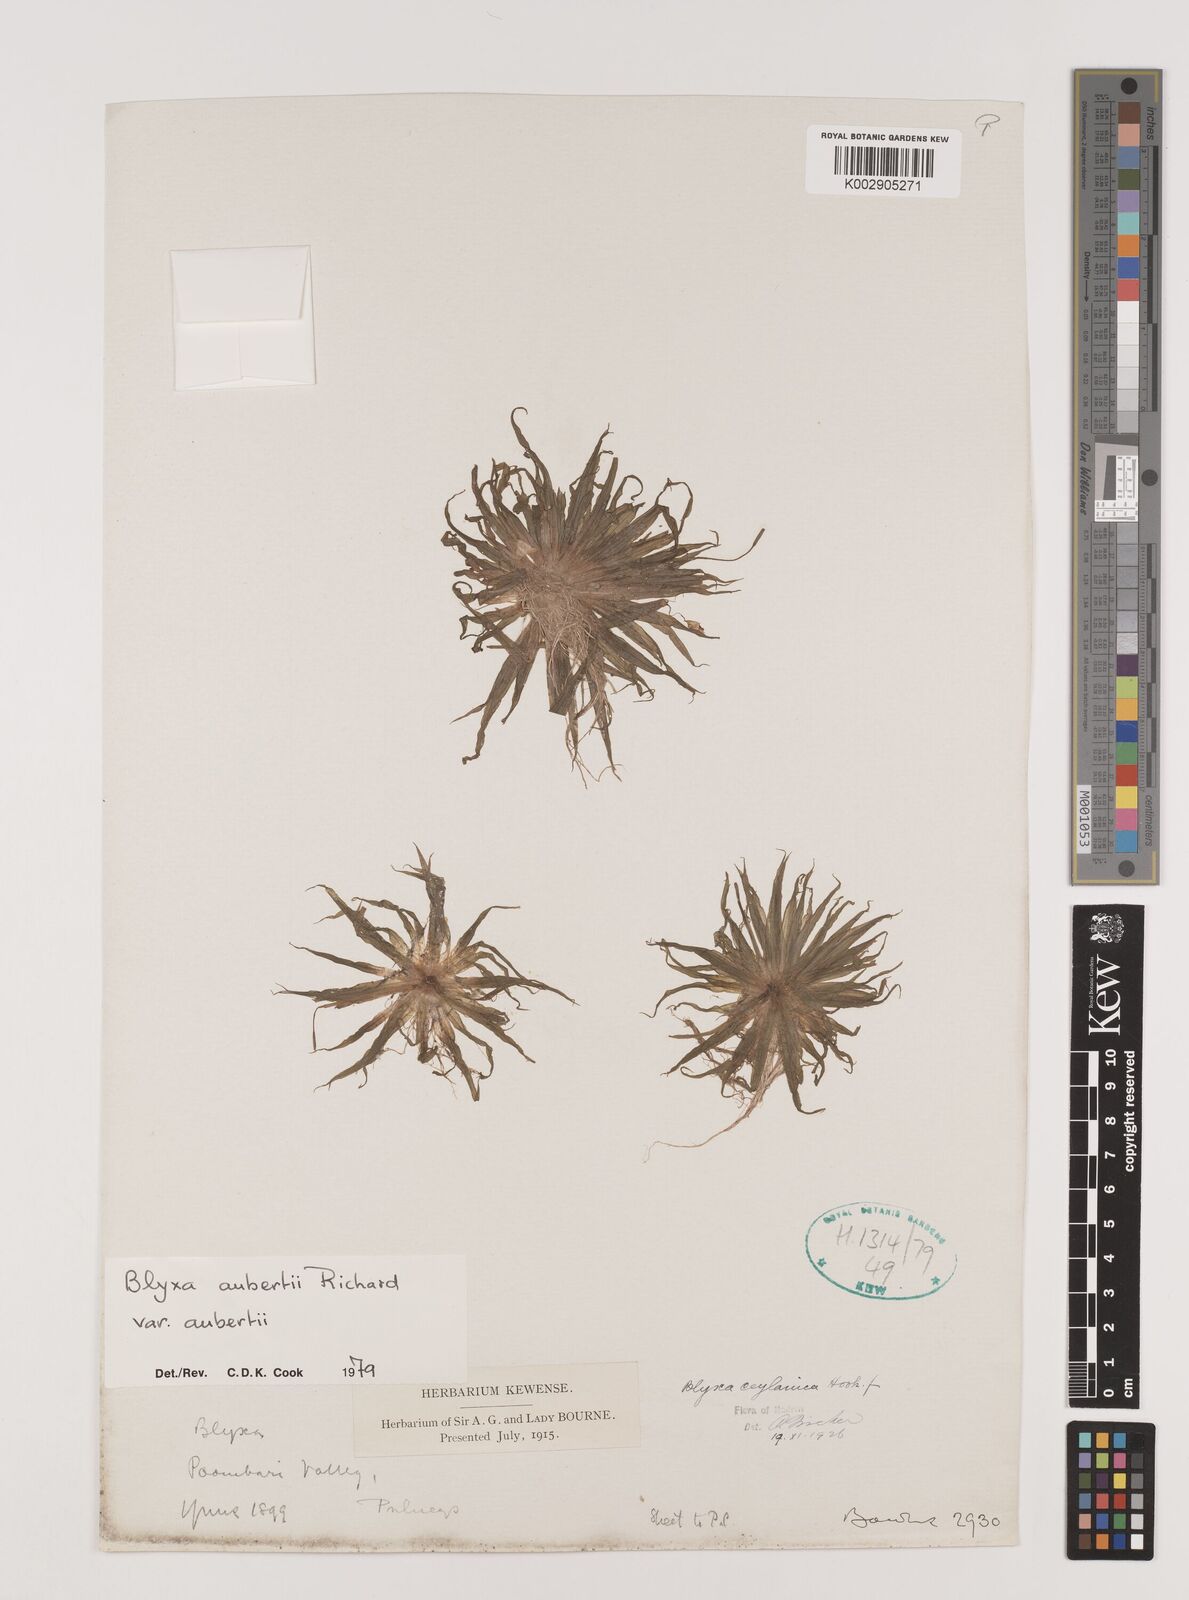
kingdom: Plantae
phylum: Tracheophyta
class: Liliopsida
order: Alismatales
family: Hydrocharitaceae
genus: Blyxa
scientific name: Blyxa aubertii
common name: Roundfruit blyxa
